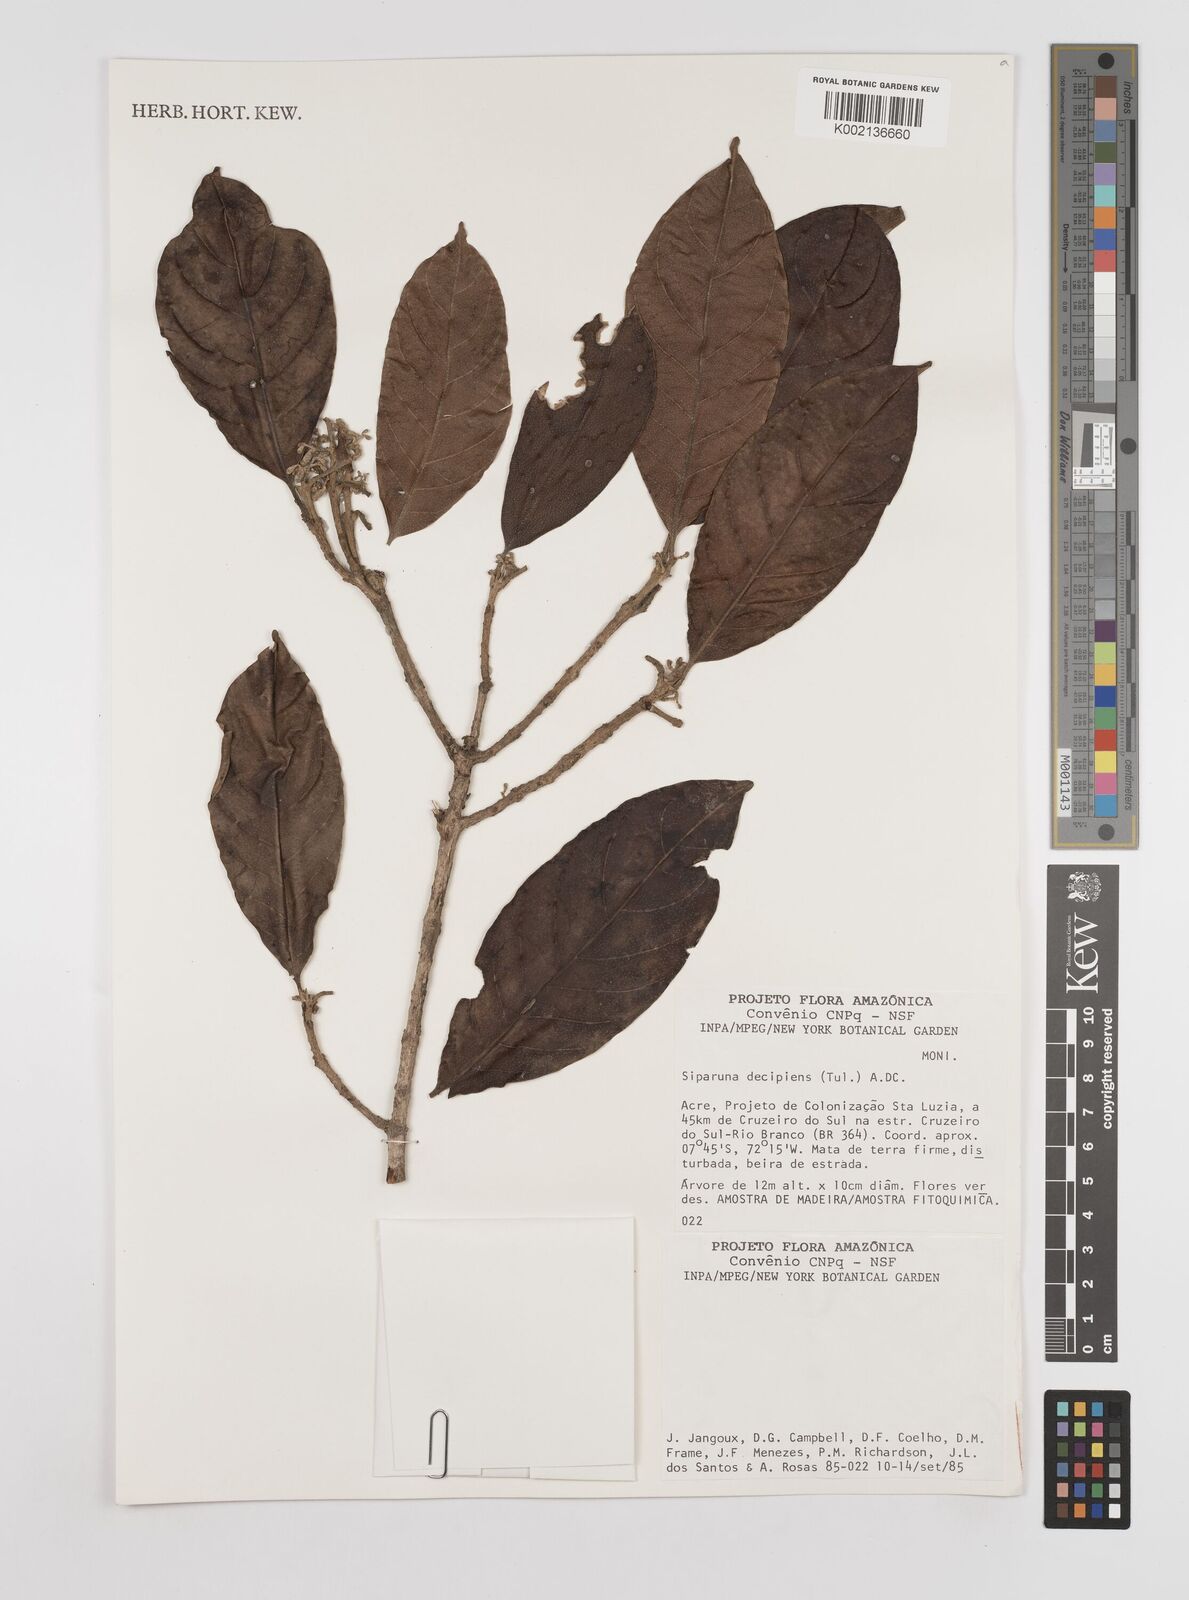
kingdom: Plantae
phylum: Tracheophyta
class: Magnoliopsida
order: Laurales
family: Siparunaceae
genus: Siparuna
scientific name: Siparuna decipiens
